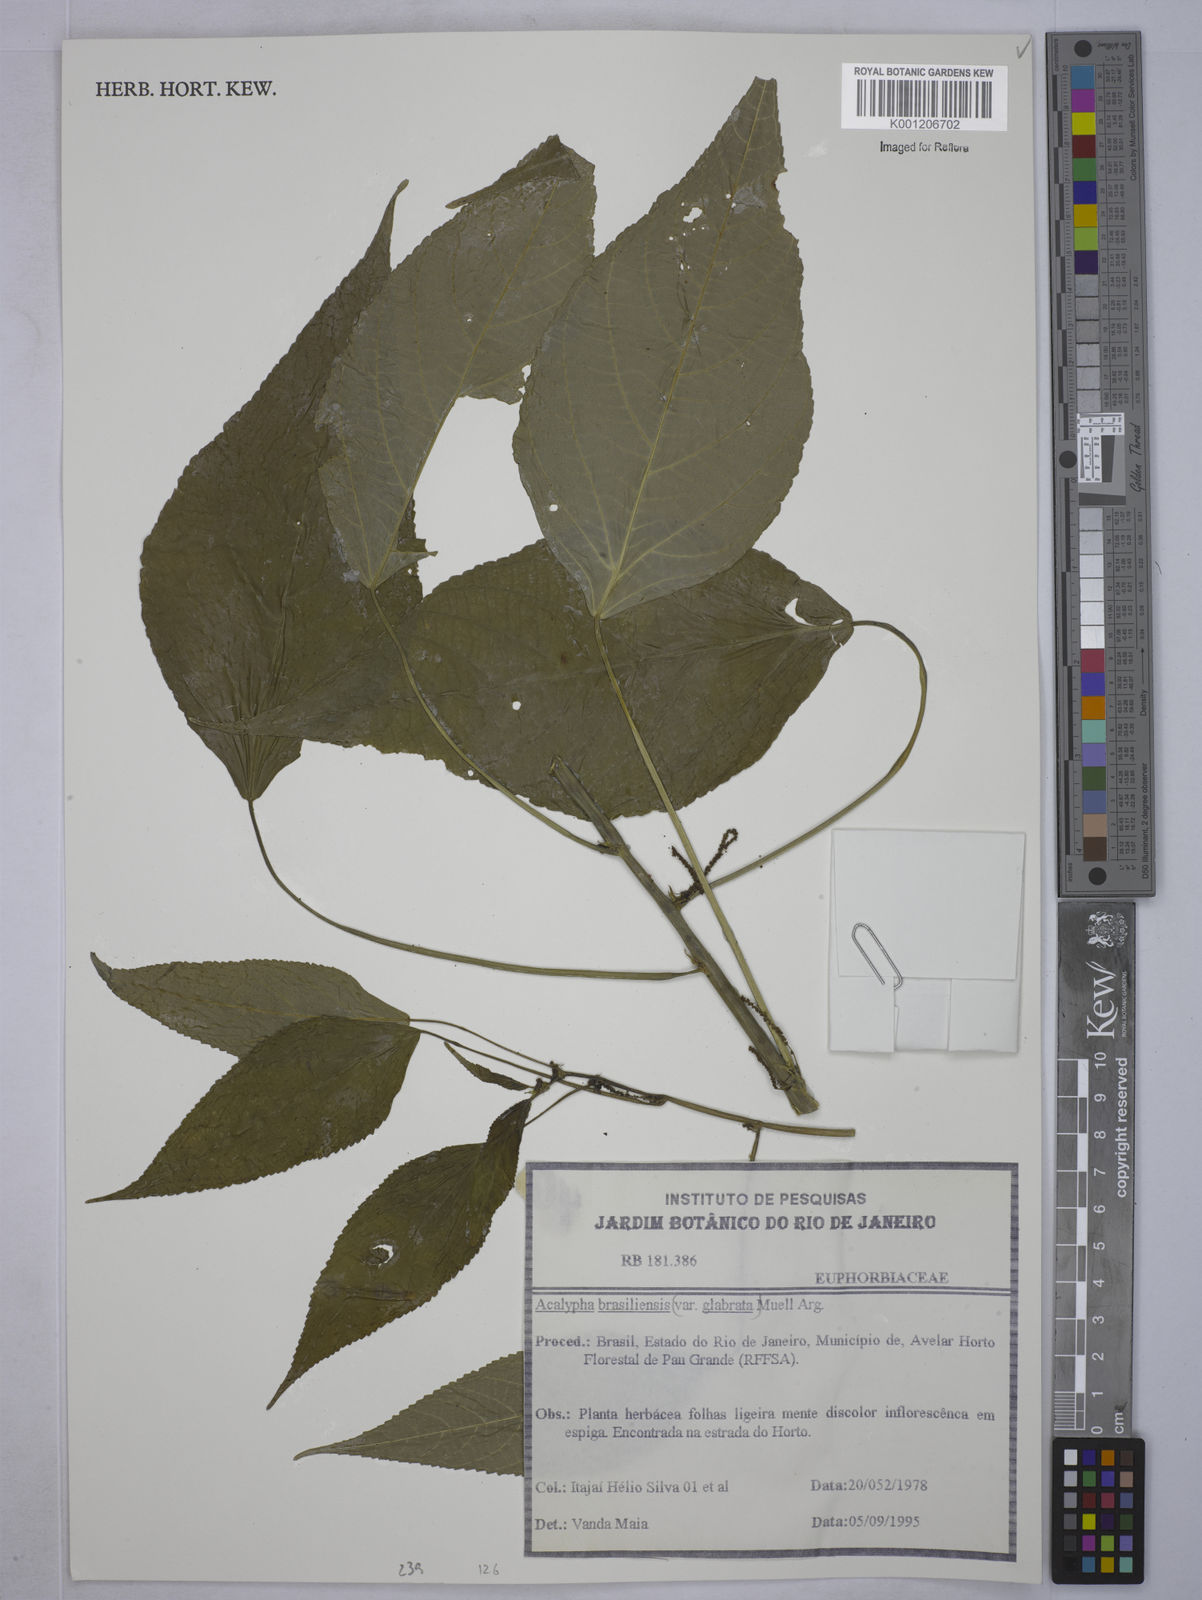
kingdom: Plantae
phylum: Tracheophyta
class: Magnoliopsida
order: Malpighiales
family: Euphorbiaceae
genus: Acalypha
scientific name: Acalypha
